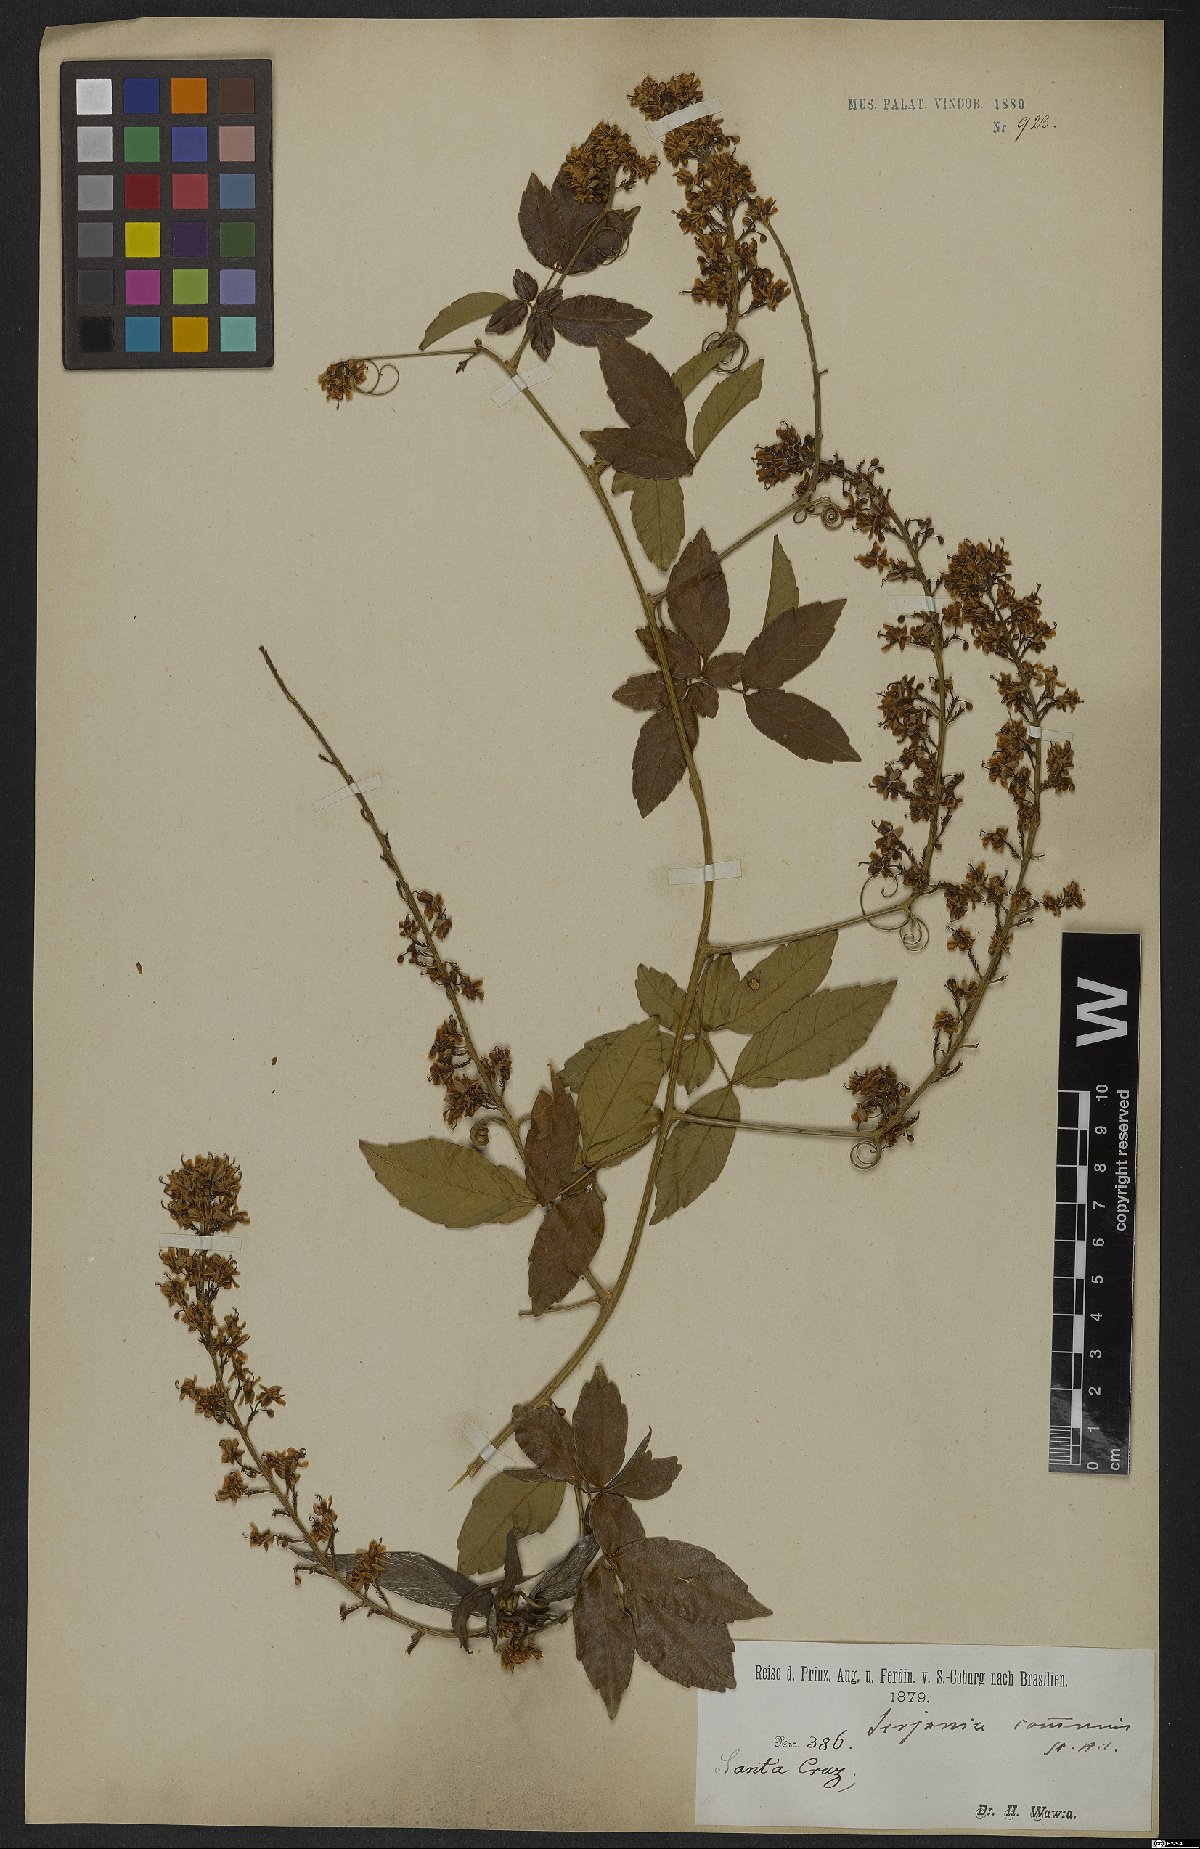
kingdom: Plantae
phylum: Tracheophyta
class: Magnoliopsida
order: Sapindales
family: Sapindaceae
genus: Serjania
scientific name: Serjania communis
